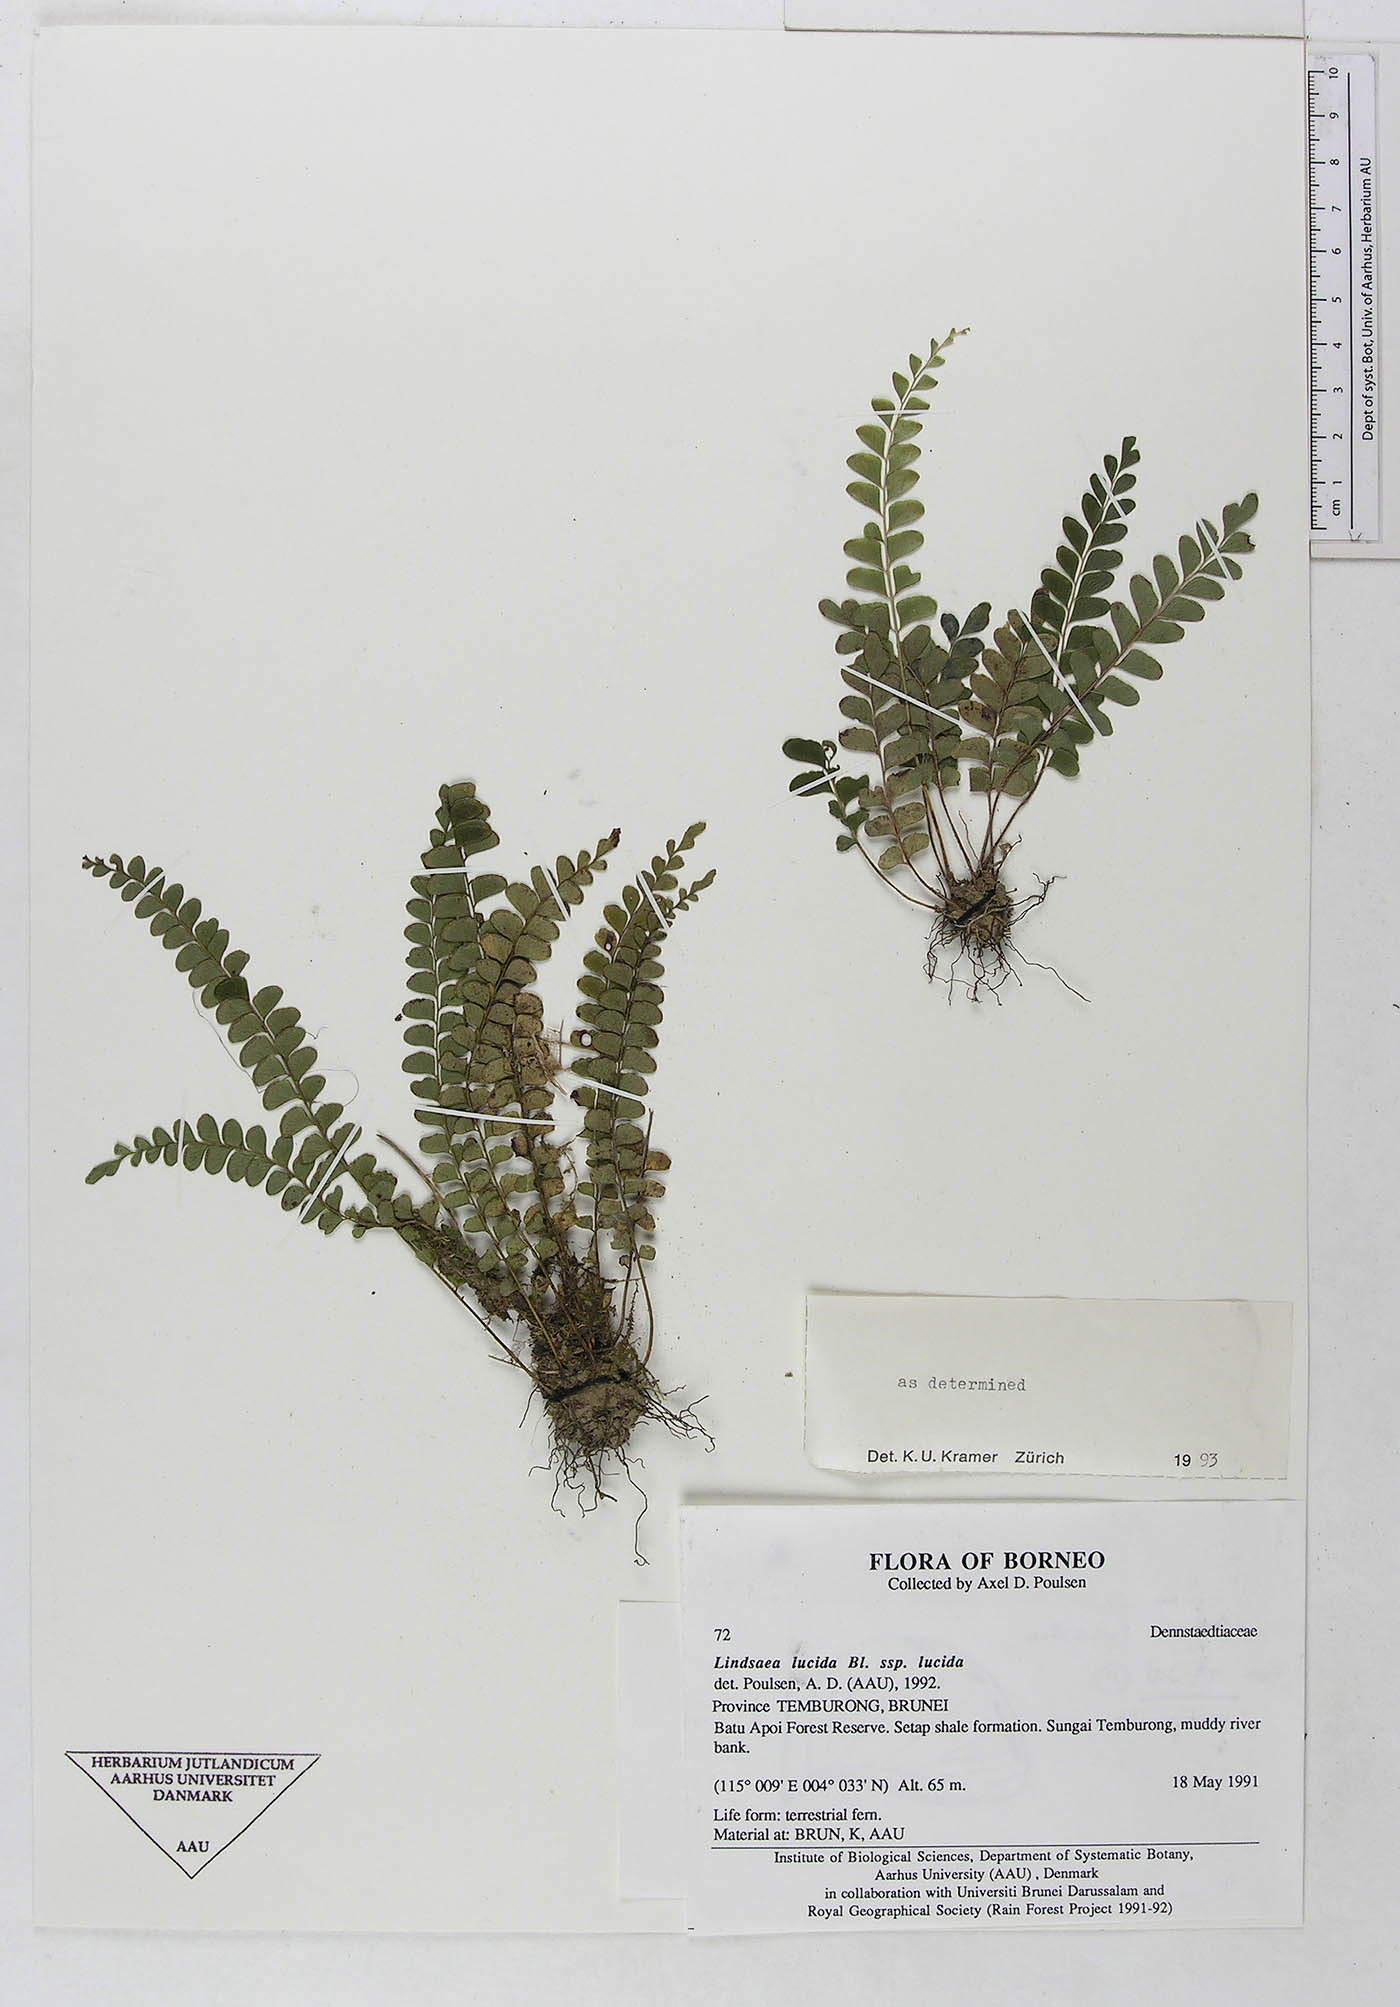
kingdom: Plantae
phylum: Tracheophyta
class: Polypodiopsida
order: Polypodiales
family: Lindsaeaceae
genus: Lindsaea
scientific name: Lindsaea lucida
